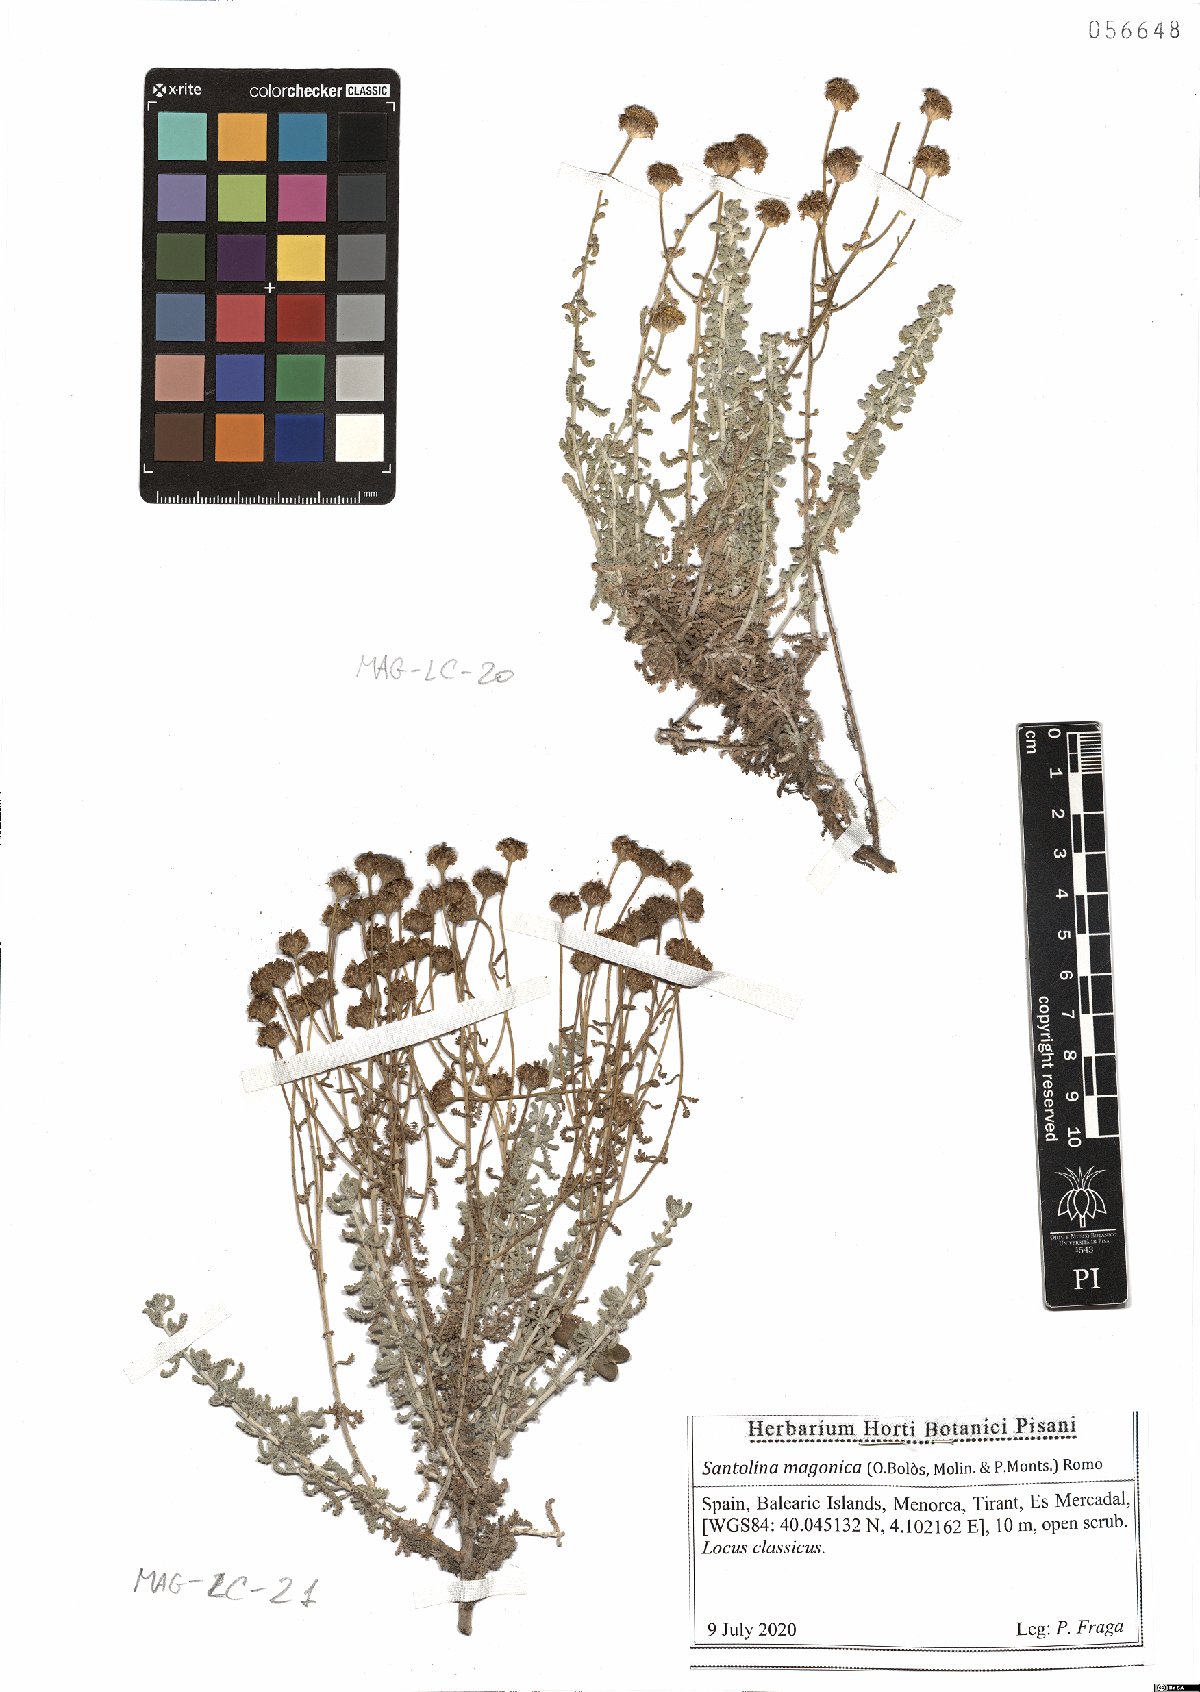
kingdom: Plantae
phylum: Tracheophyta
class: Magnoliopsida
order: Asterales
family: Asteraceae
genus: Santolina
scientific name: Santolina magonica
